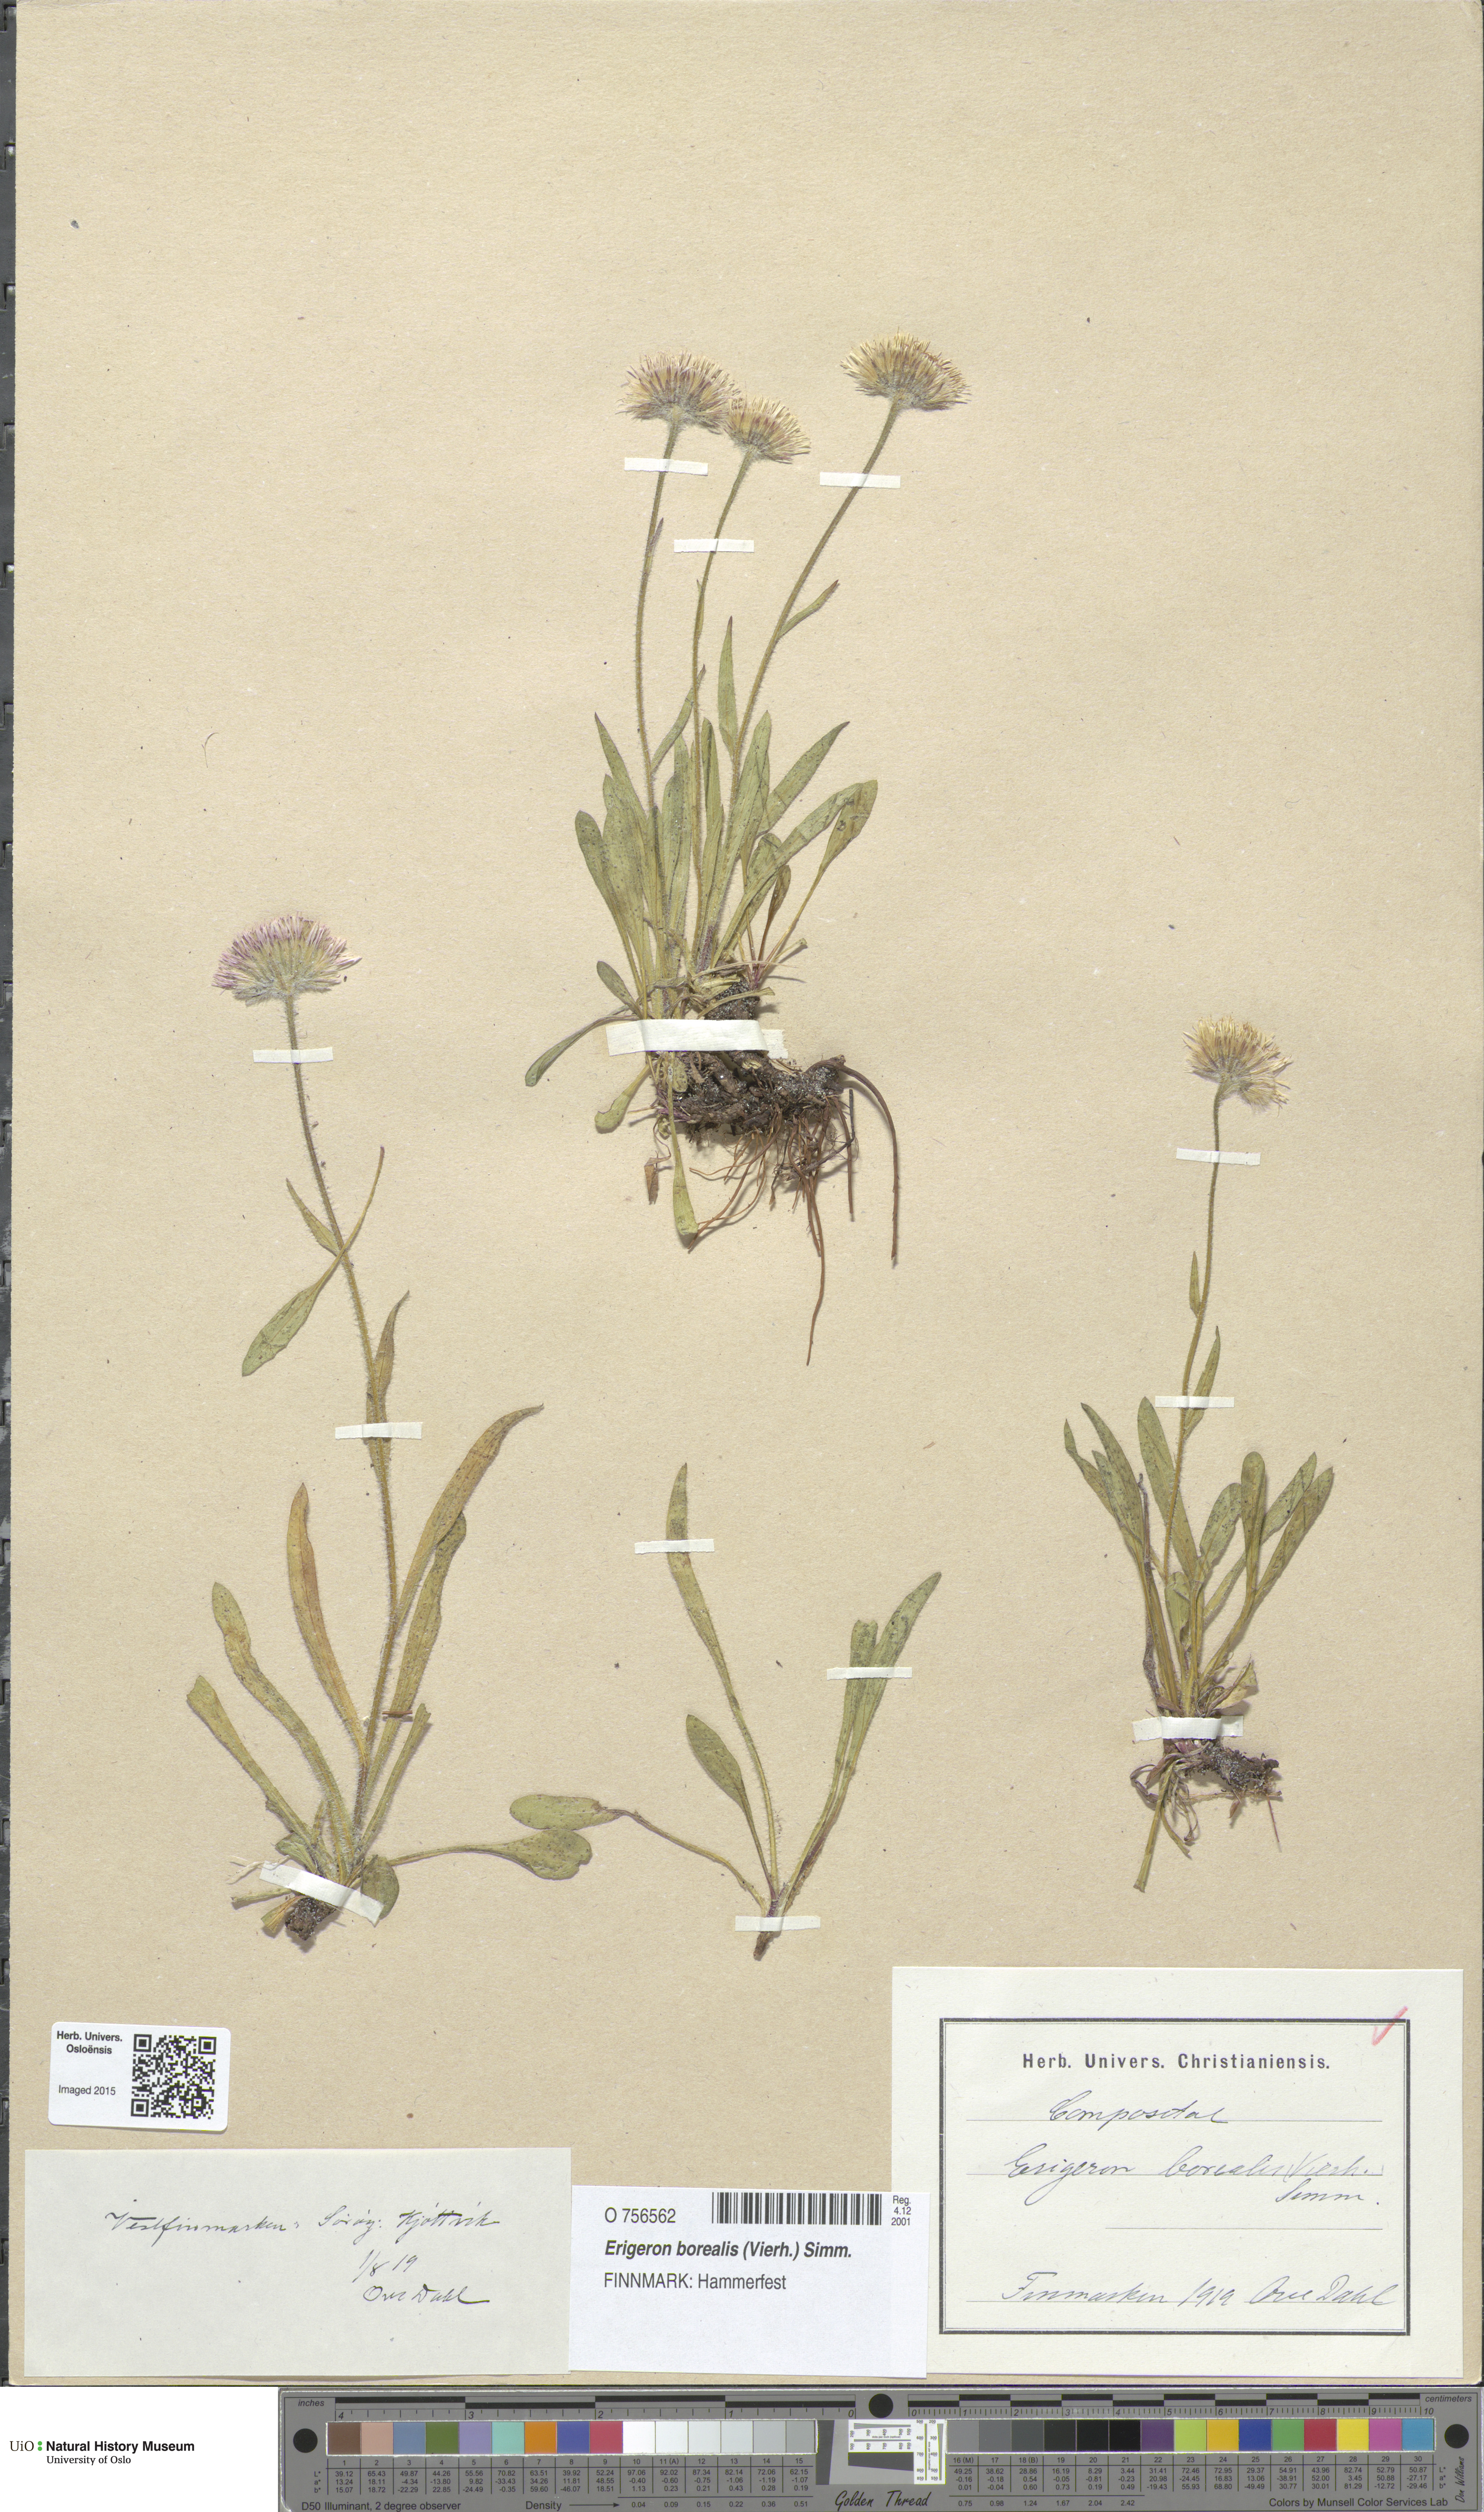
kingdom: Plantae
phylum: Tracheophyta
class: Magnoliopsida
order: Asterales
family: Asteraceae
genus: Erigeron
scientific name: Erigeron borealis
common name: Alpine fleabane
